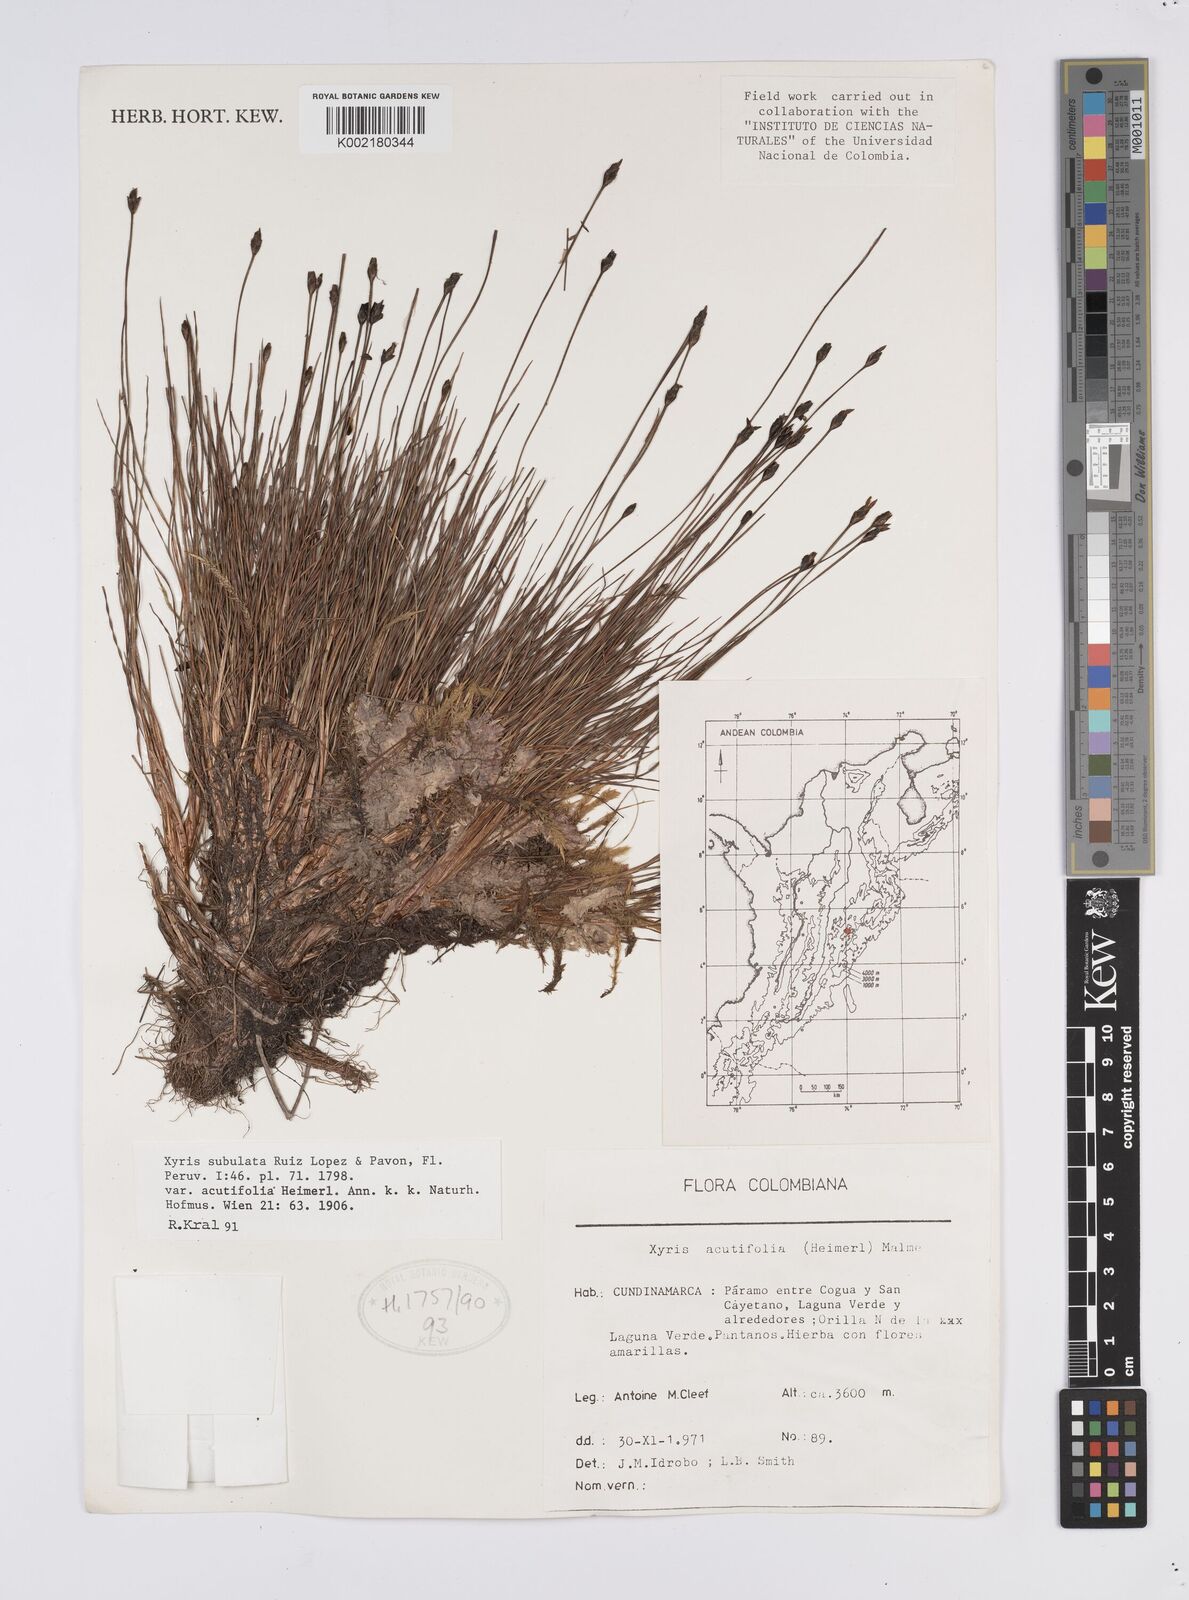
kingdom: Plantae
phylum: Tracheophyta
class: Liliopsida
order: Poales
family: Xyridaceae
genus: Xyris
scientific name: Xyris subulata
